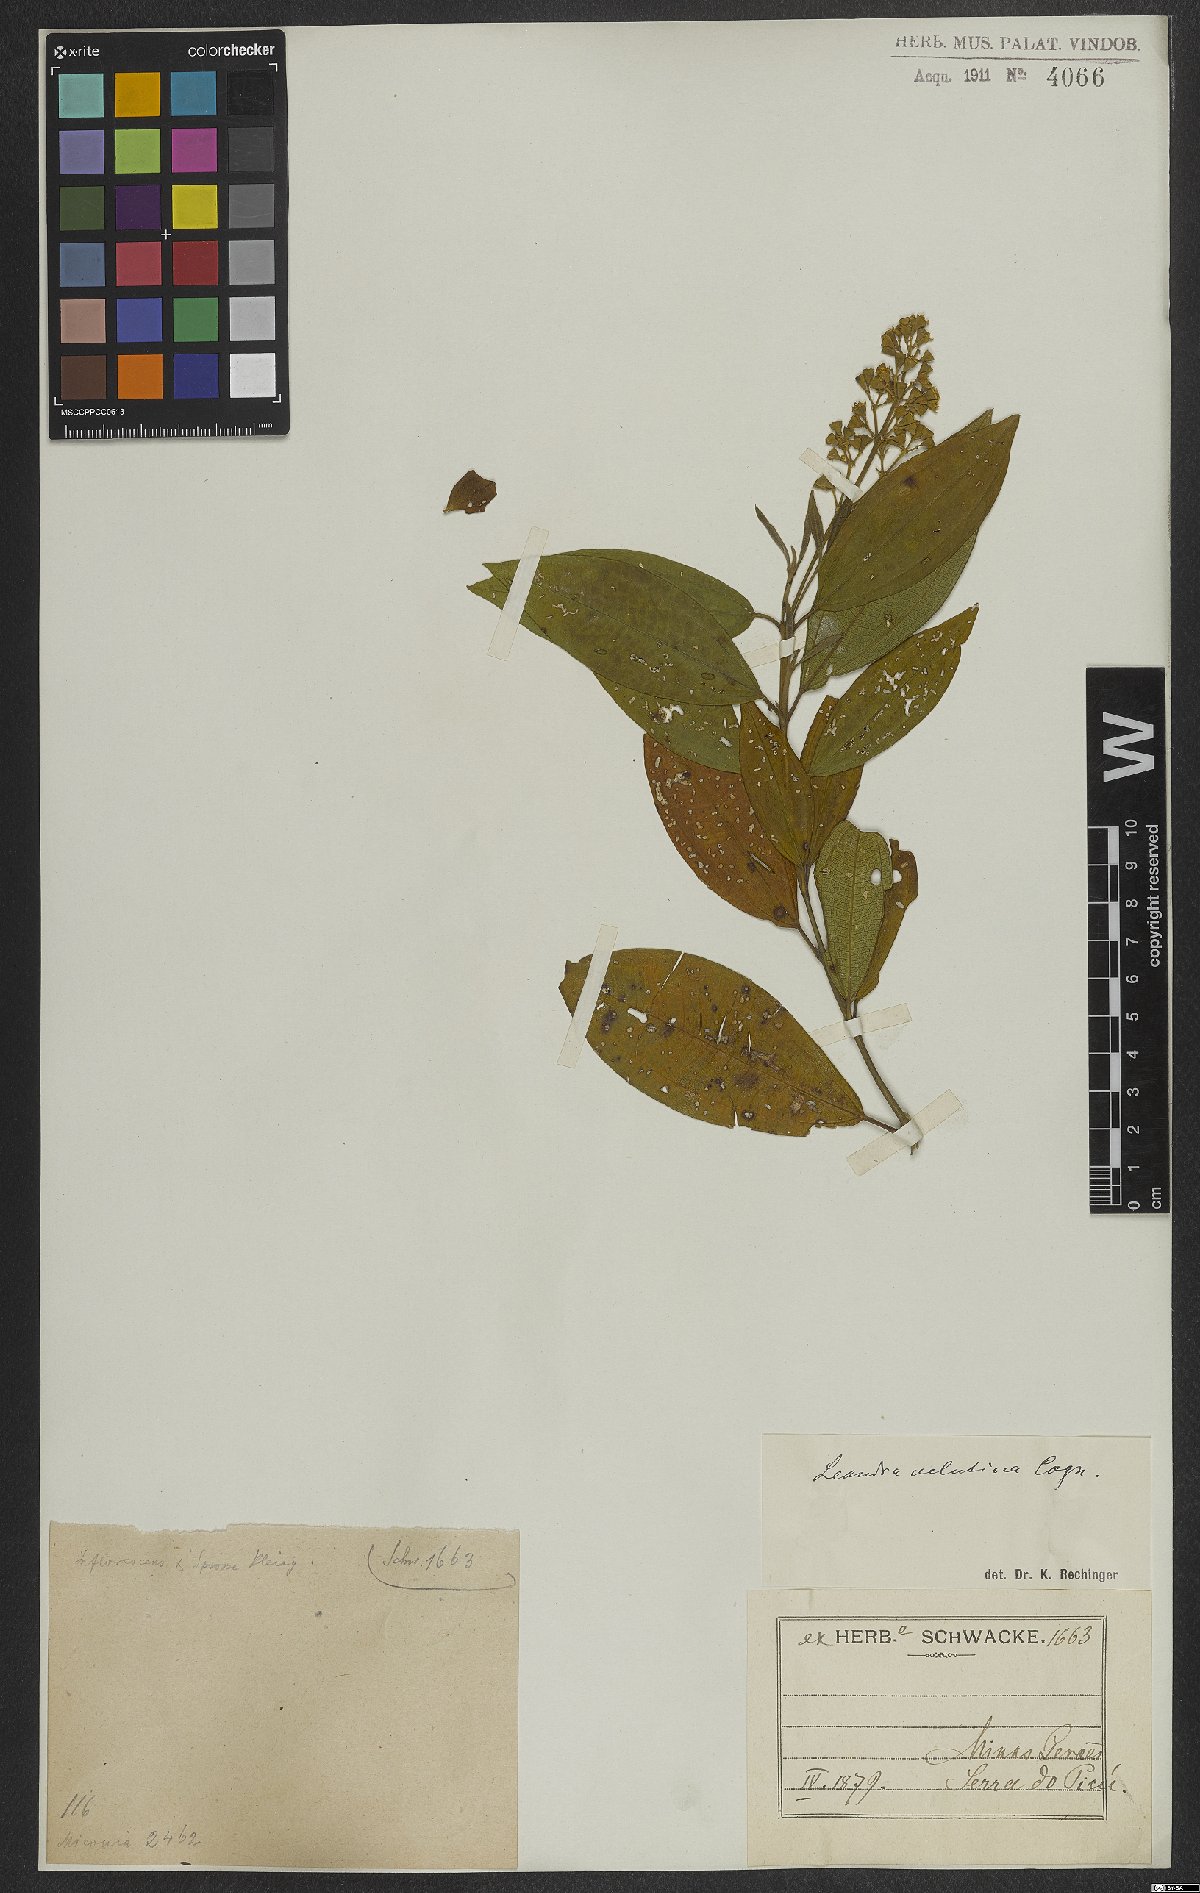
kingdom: Plantae
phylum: Tracheophyta
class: Magnoliopsida
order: Myrtales
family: Melastomataceae
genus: Miconia
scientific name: Miconia leavelutina
